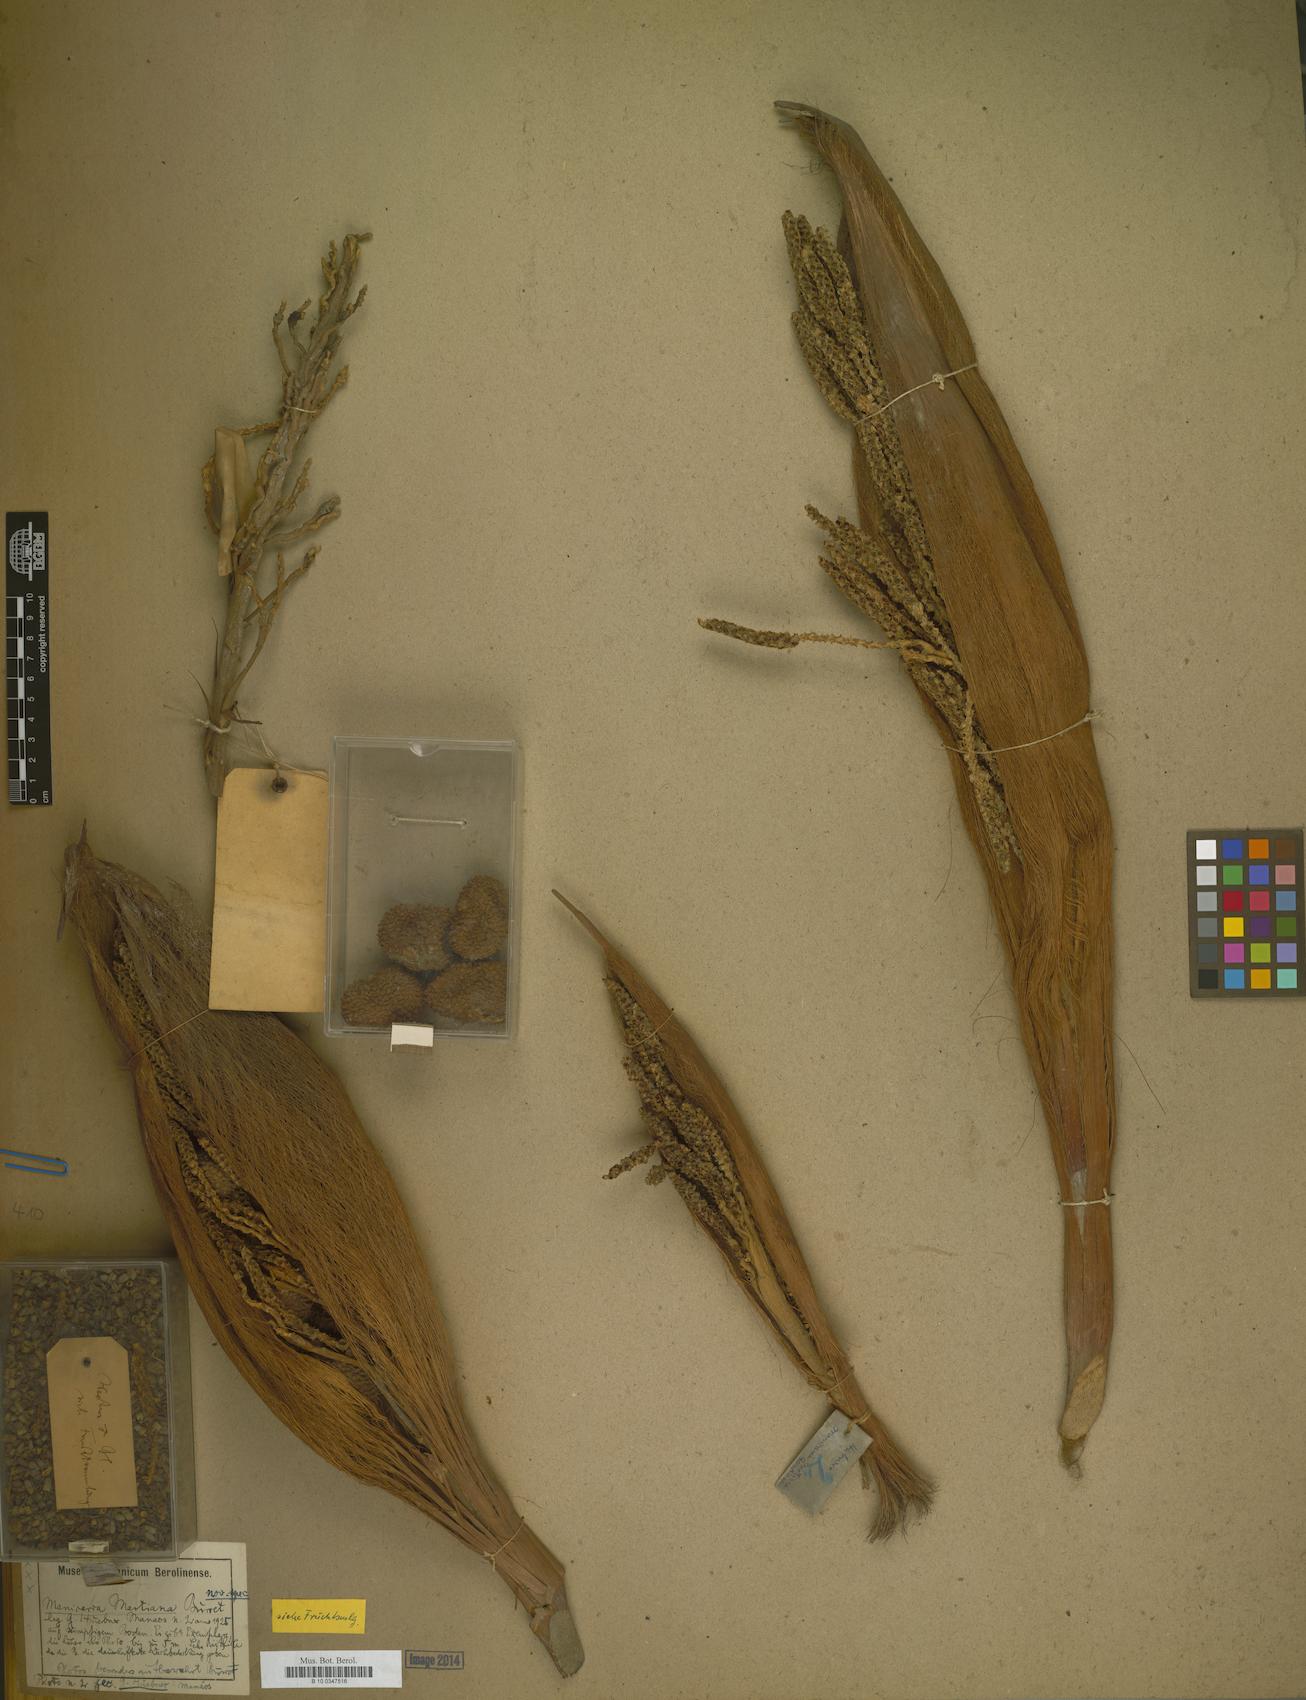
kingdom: Plantae
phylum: Tracheophyta
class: Liliopsida
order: Arecales
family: Arecaceae
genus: Manicaria
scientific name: Manicaria martiana
